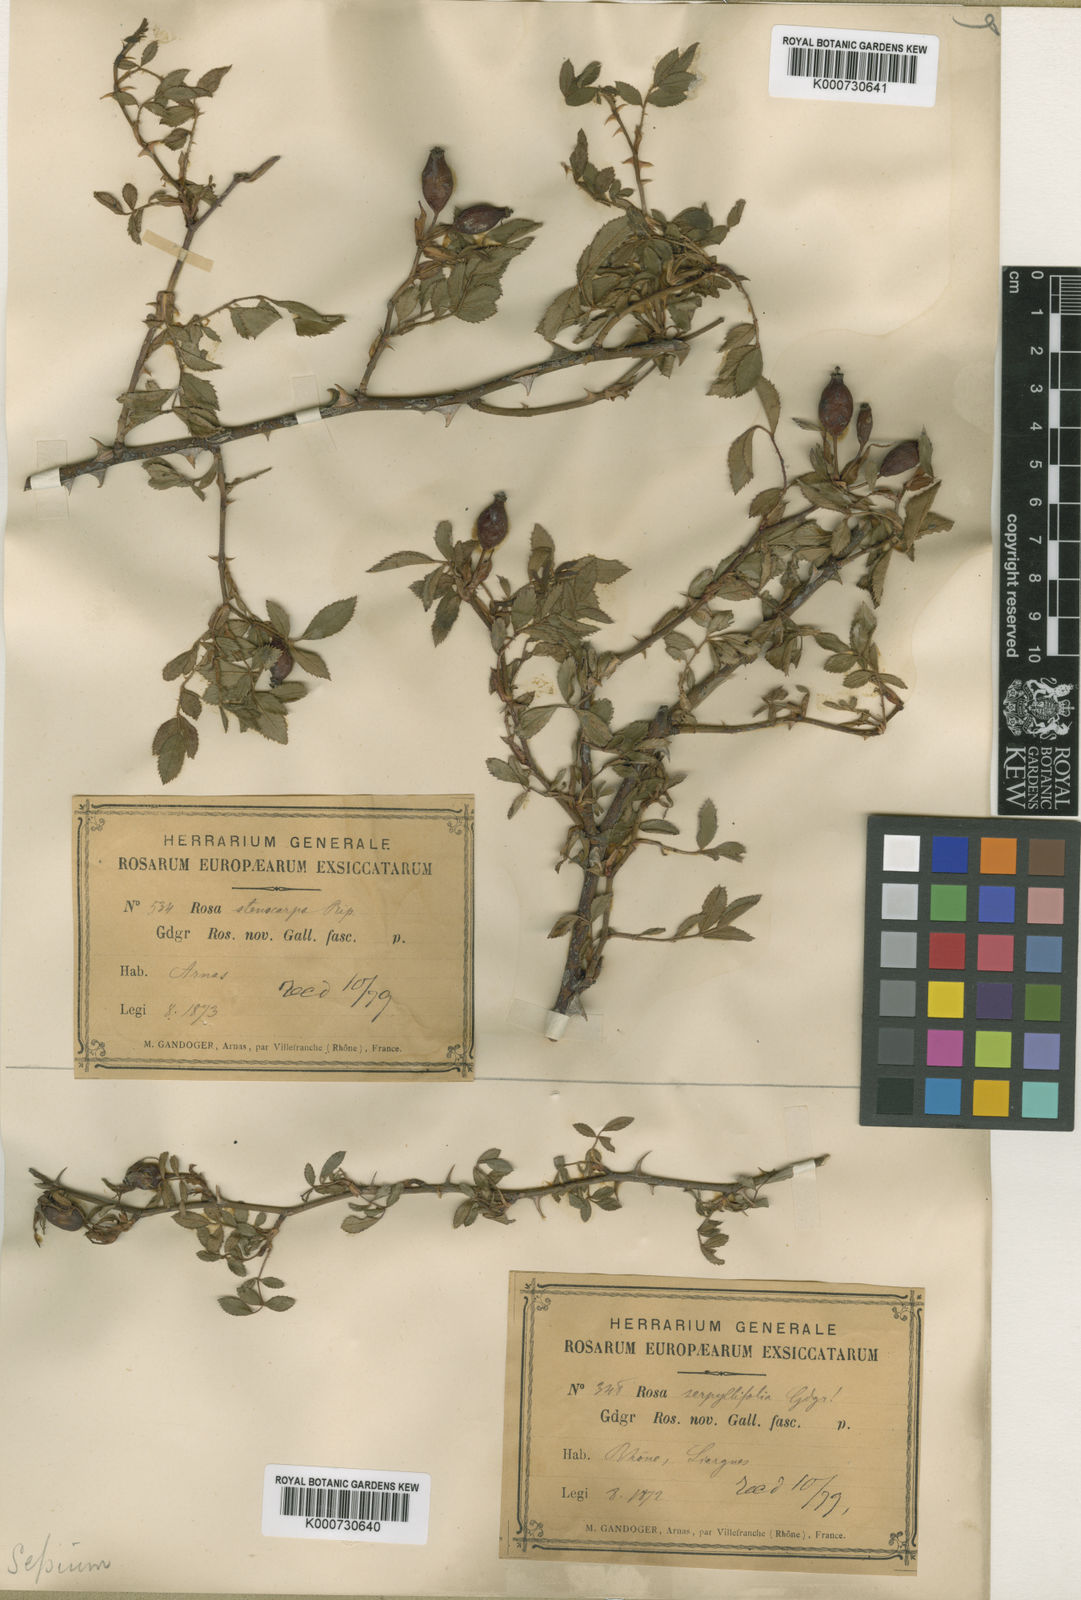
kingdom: Plantae
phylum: Tracheophyta
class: Magnoliopsida
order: Rosales
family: Rosaceae
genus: Rosa
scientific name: Rosa agrestis
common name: Fieldbriar
